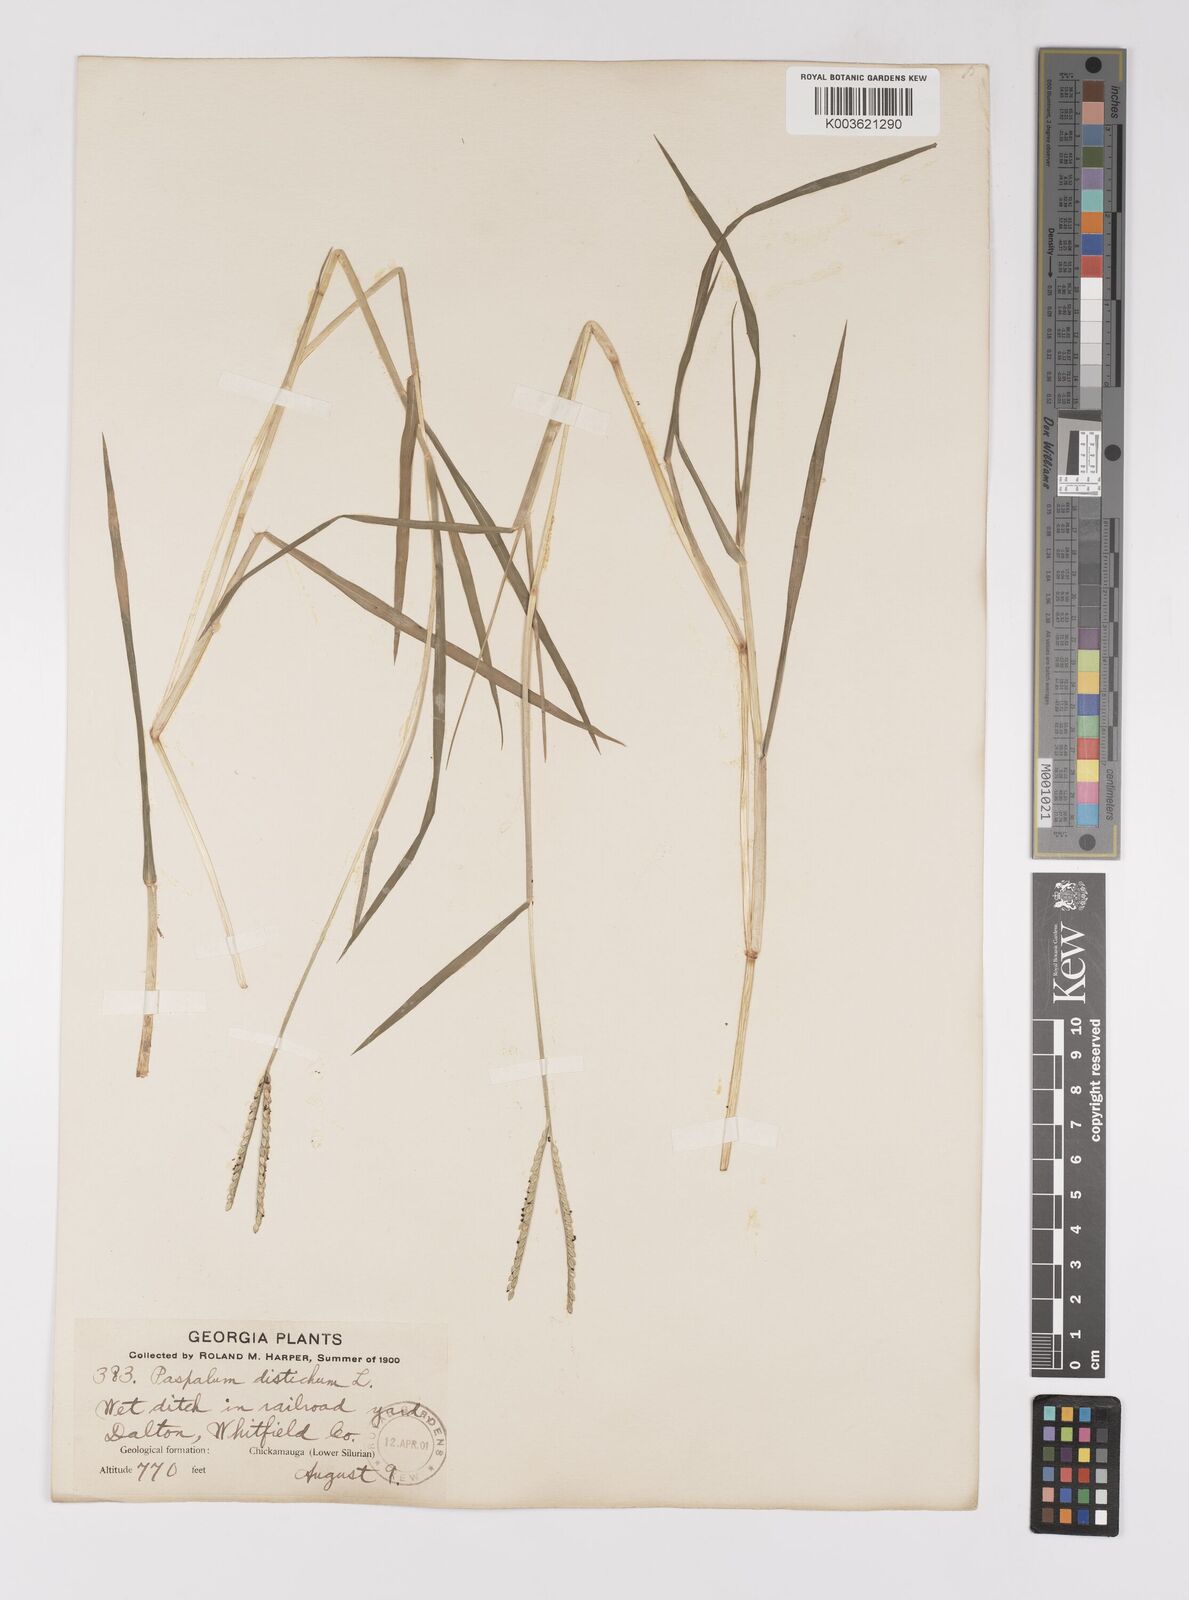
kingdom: Plantae
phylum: Tracheophyta
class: Liliopsida
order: Poales
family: Poaceae
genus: Paspalum
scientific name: Paspalum distichum
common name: Knotgrass
